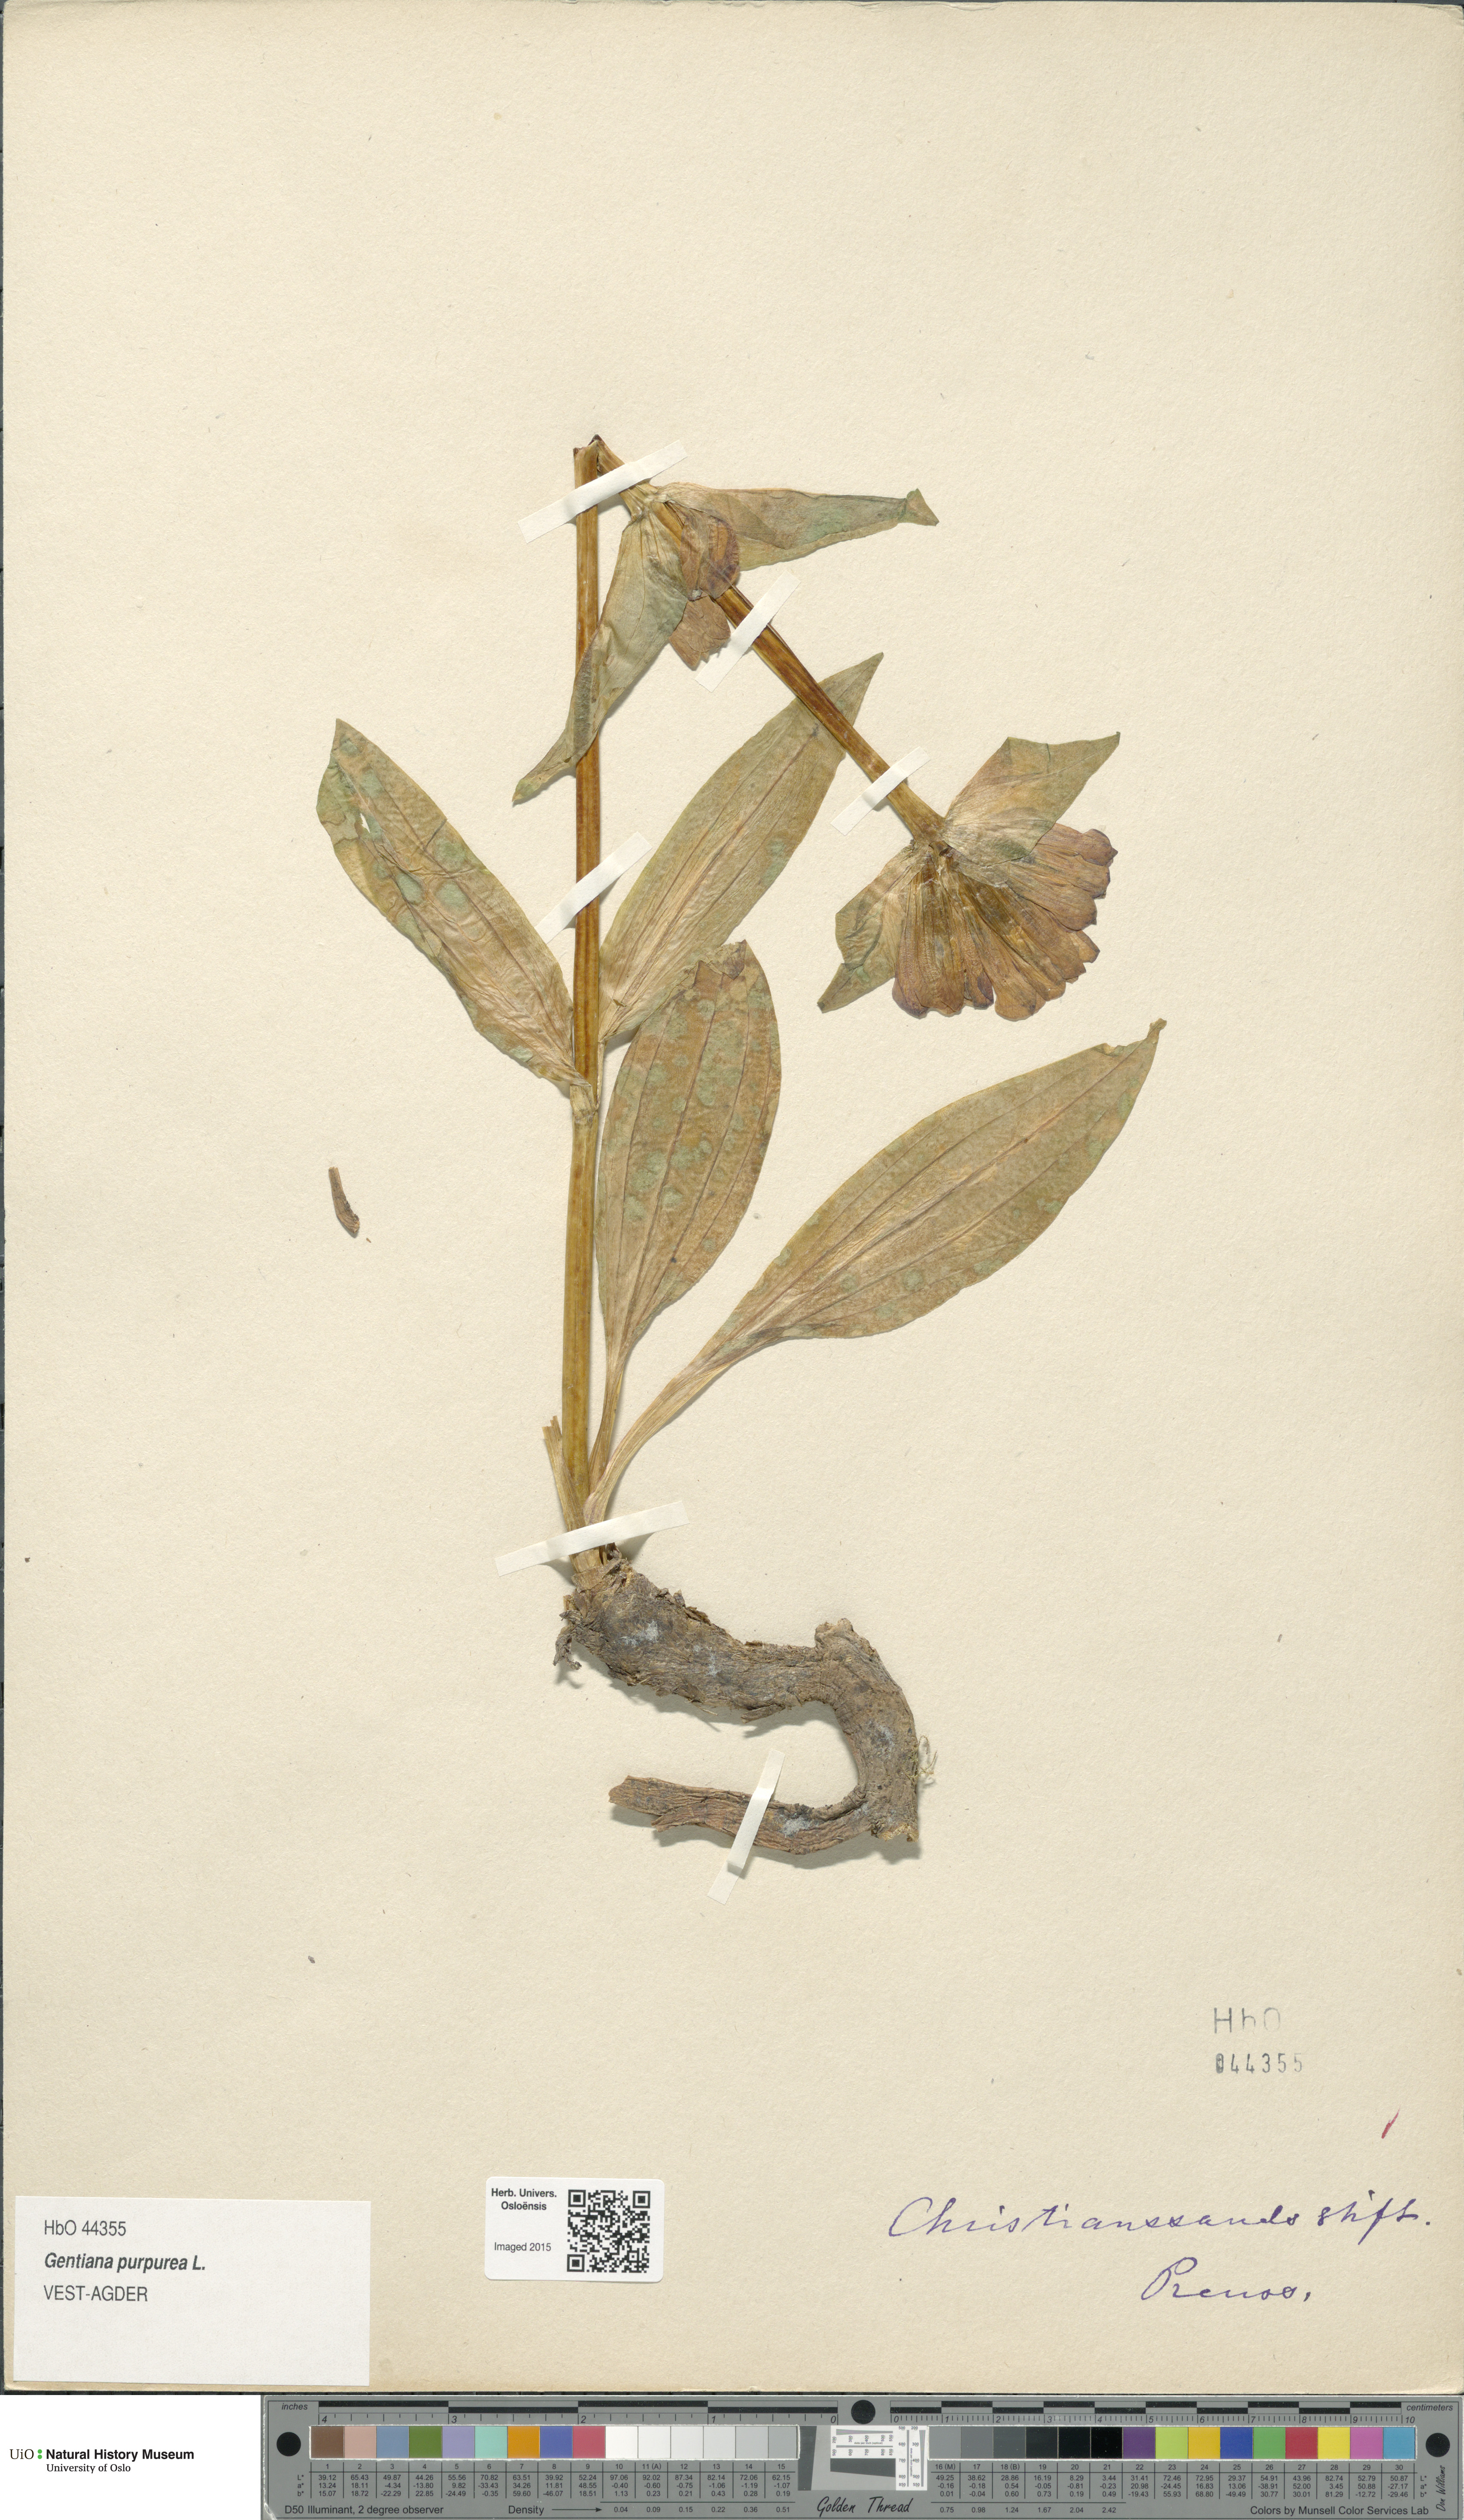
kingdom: Plantae
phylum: Tracheophyta
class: Magnoliopsida
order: Gentianales
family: Gentianaceae
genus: Gentiana
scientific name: Gentiana purpurea
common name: Purple gentian
